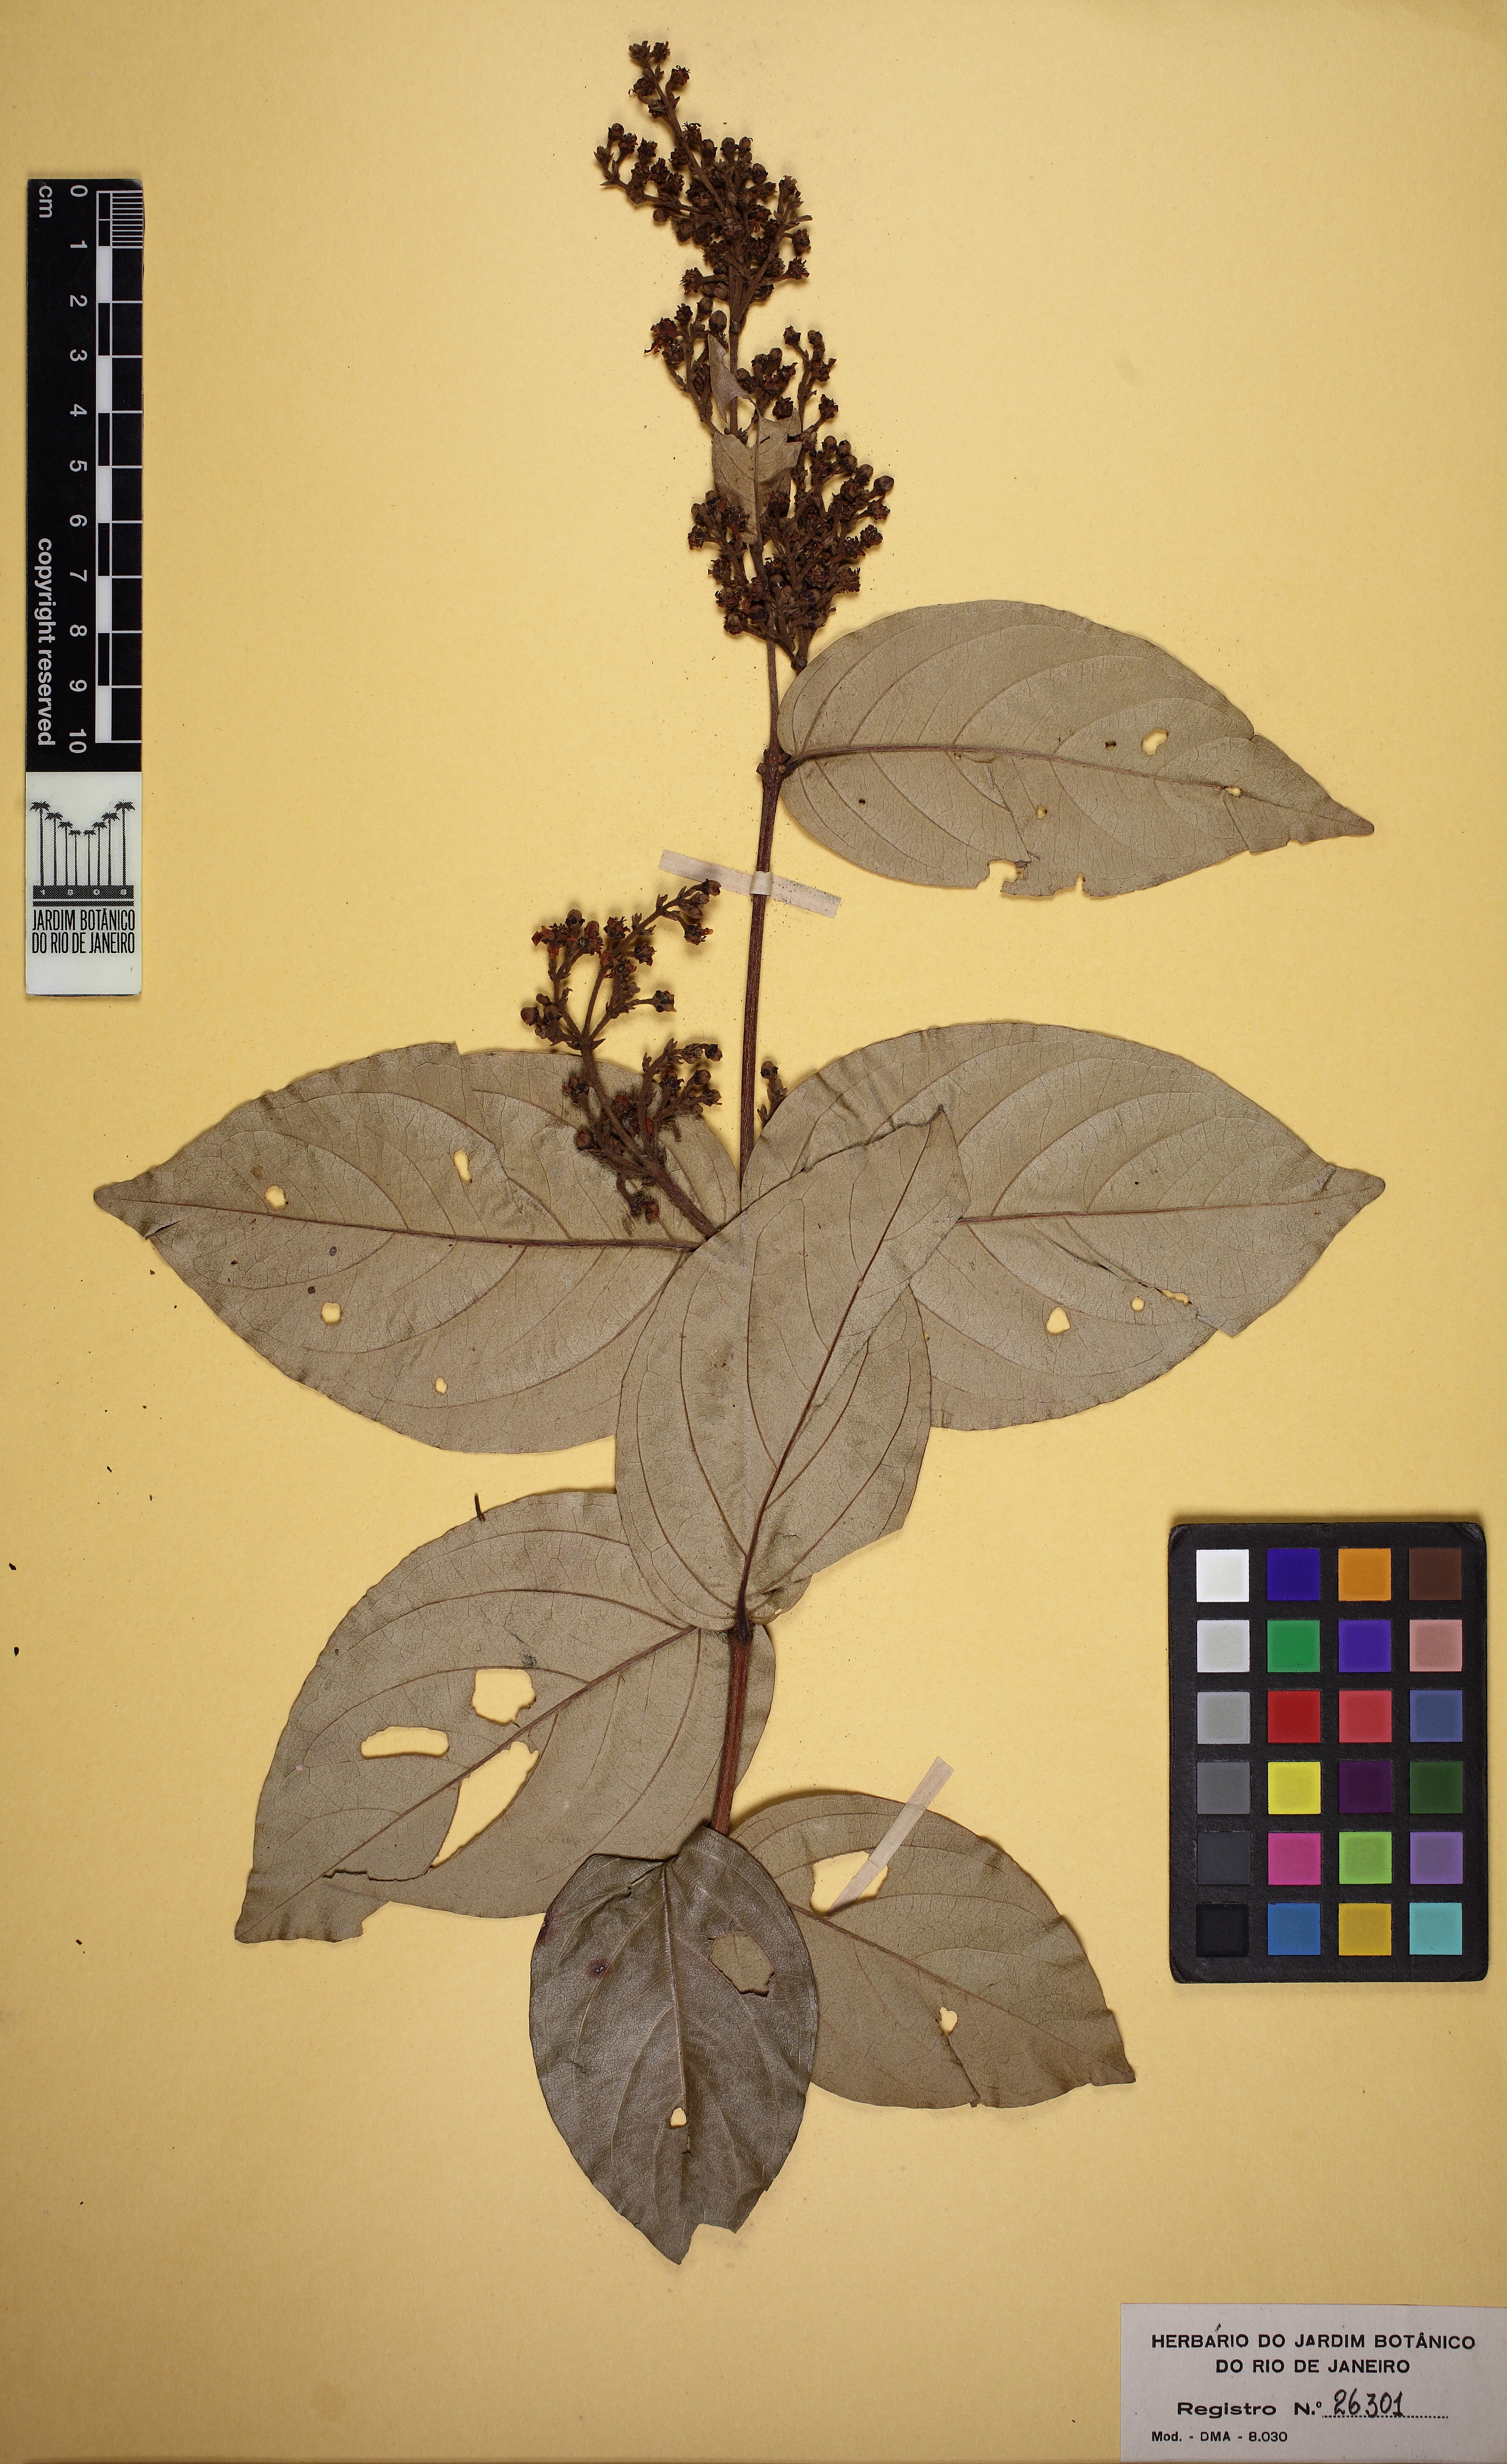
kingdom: Plantae
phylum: Tracheophyta
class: Magnoliopsida
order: Malpighiales
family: Malpighiaceae
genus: Niedenzuella
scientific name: Niedenzuella stannea
